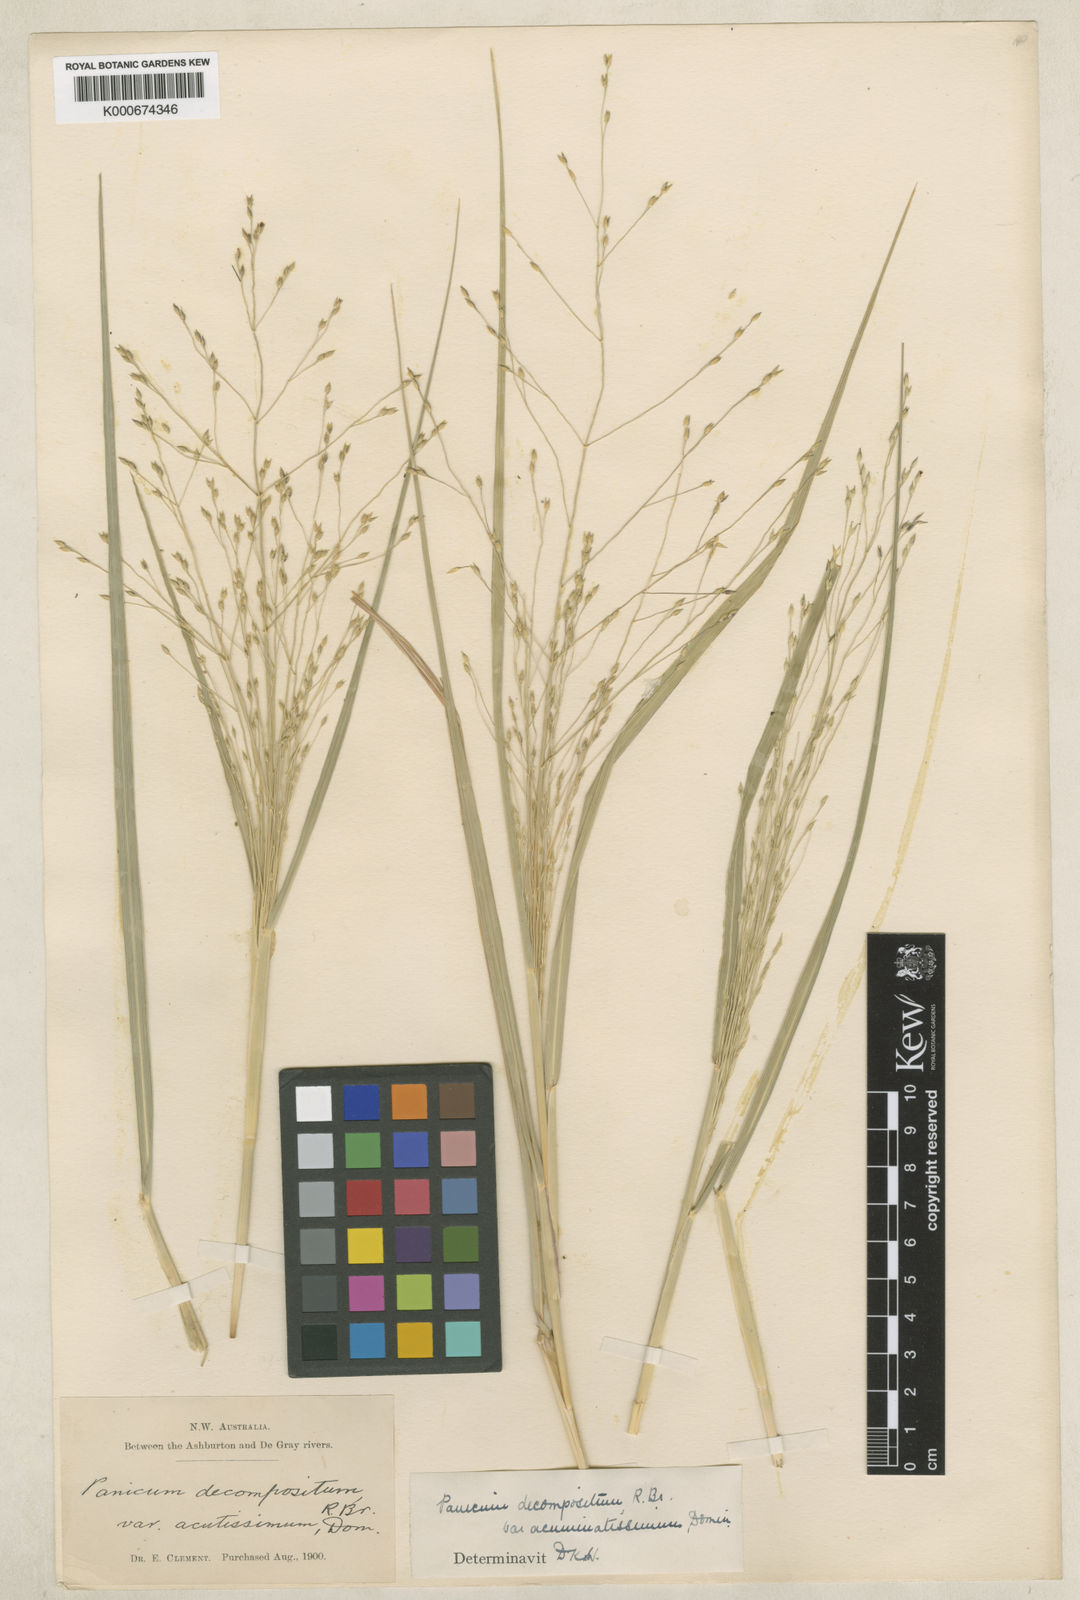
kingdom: Plantae
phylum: Tracheophyta
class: Liliopsida
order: Poales
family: Poaceae
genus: Panicum
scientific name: Panicum latzii
